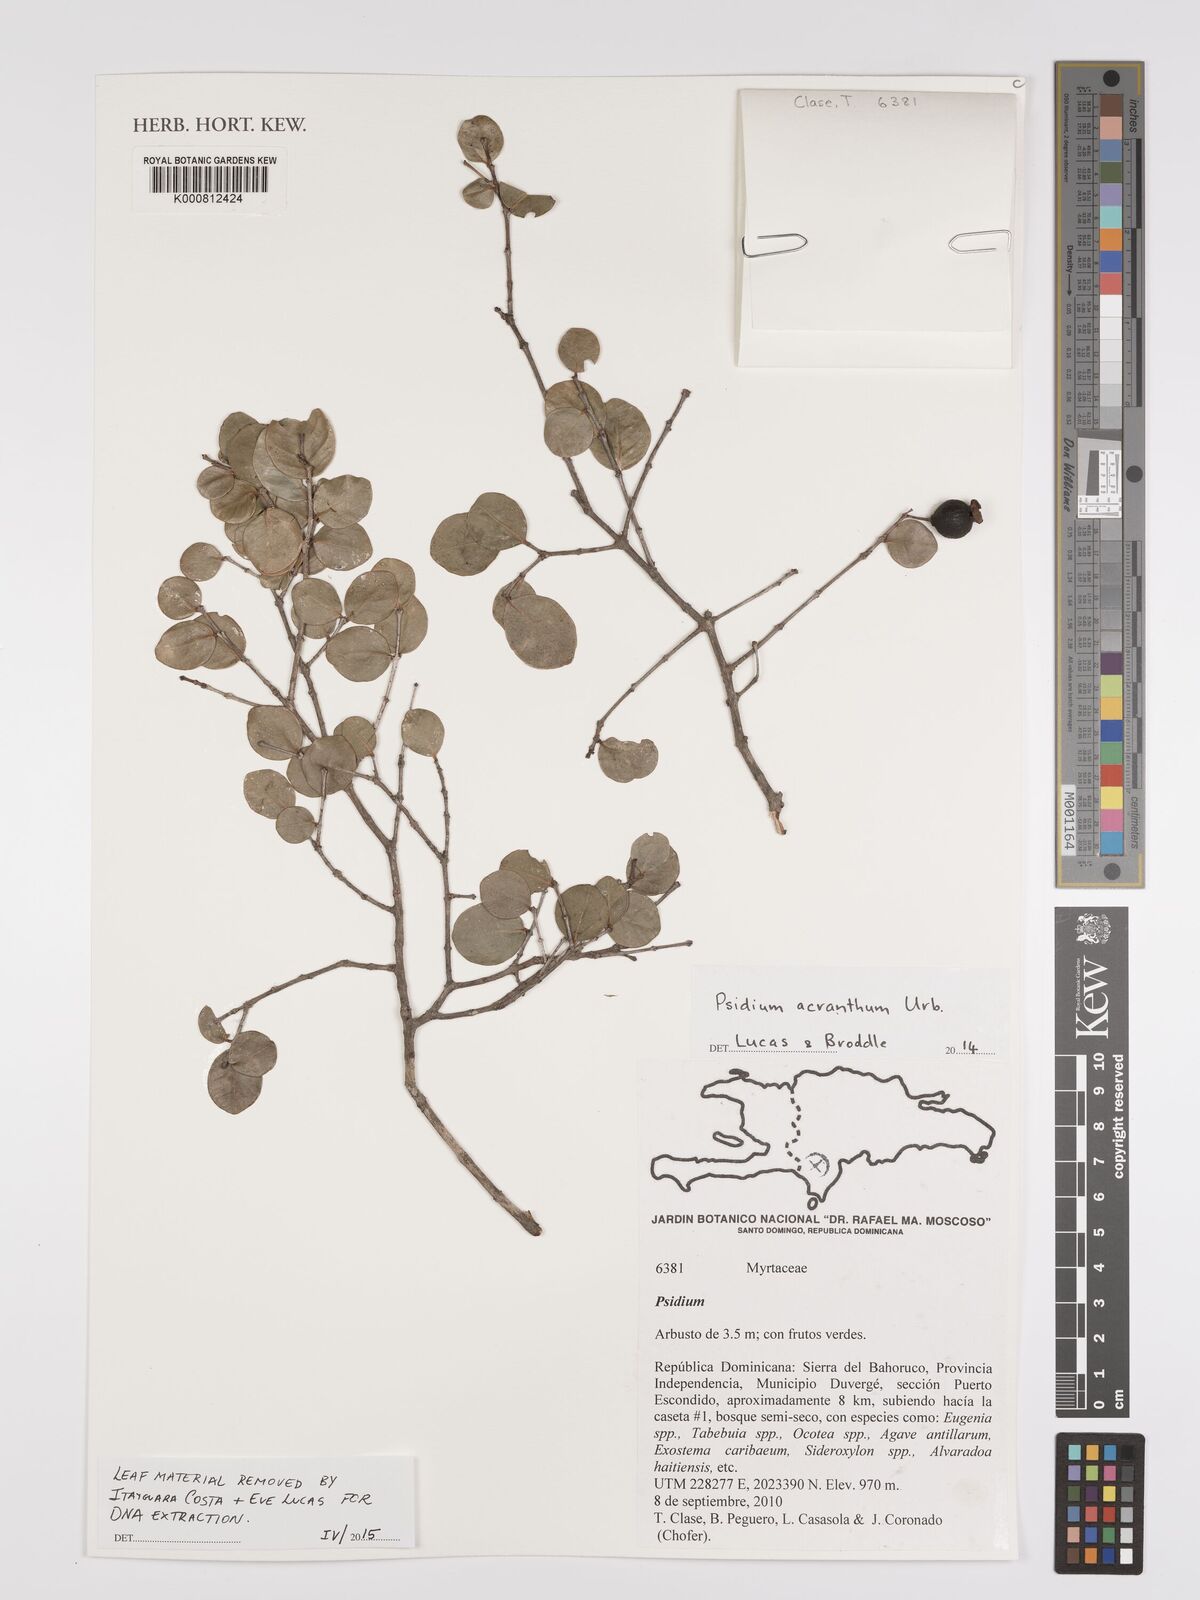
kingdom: Plantae
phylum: Tracheophyta
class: Magnoliopsida
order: Myrtales
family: Myrtaceae
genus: Psidium
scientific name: Psidium acranthum
